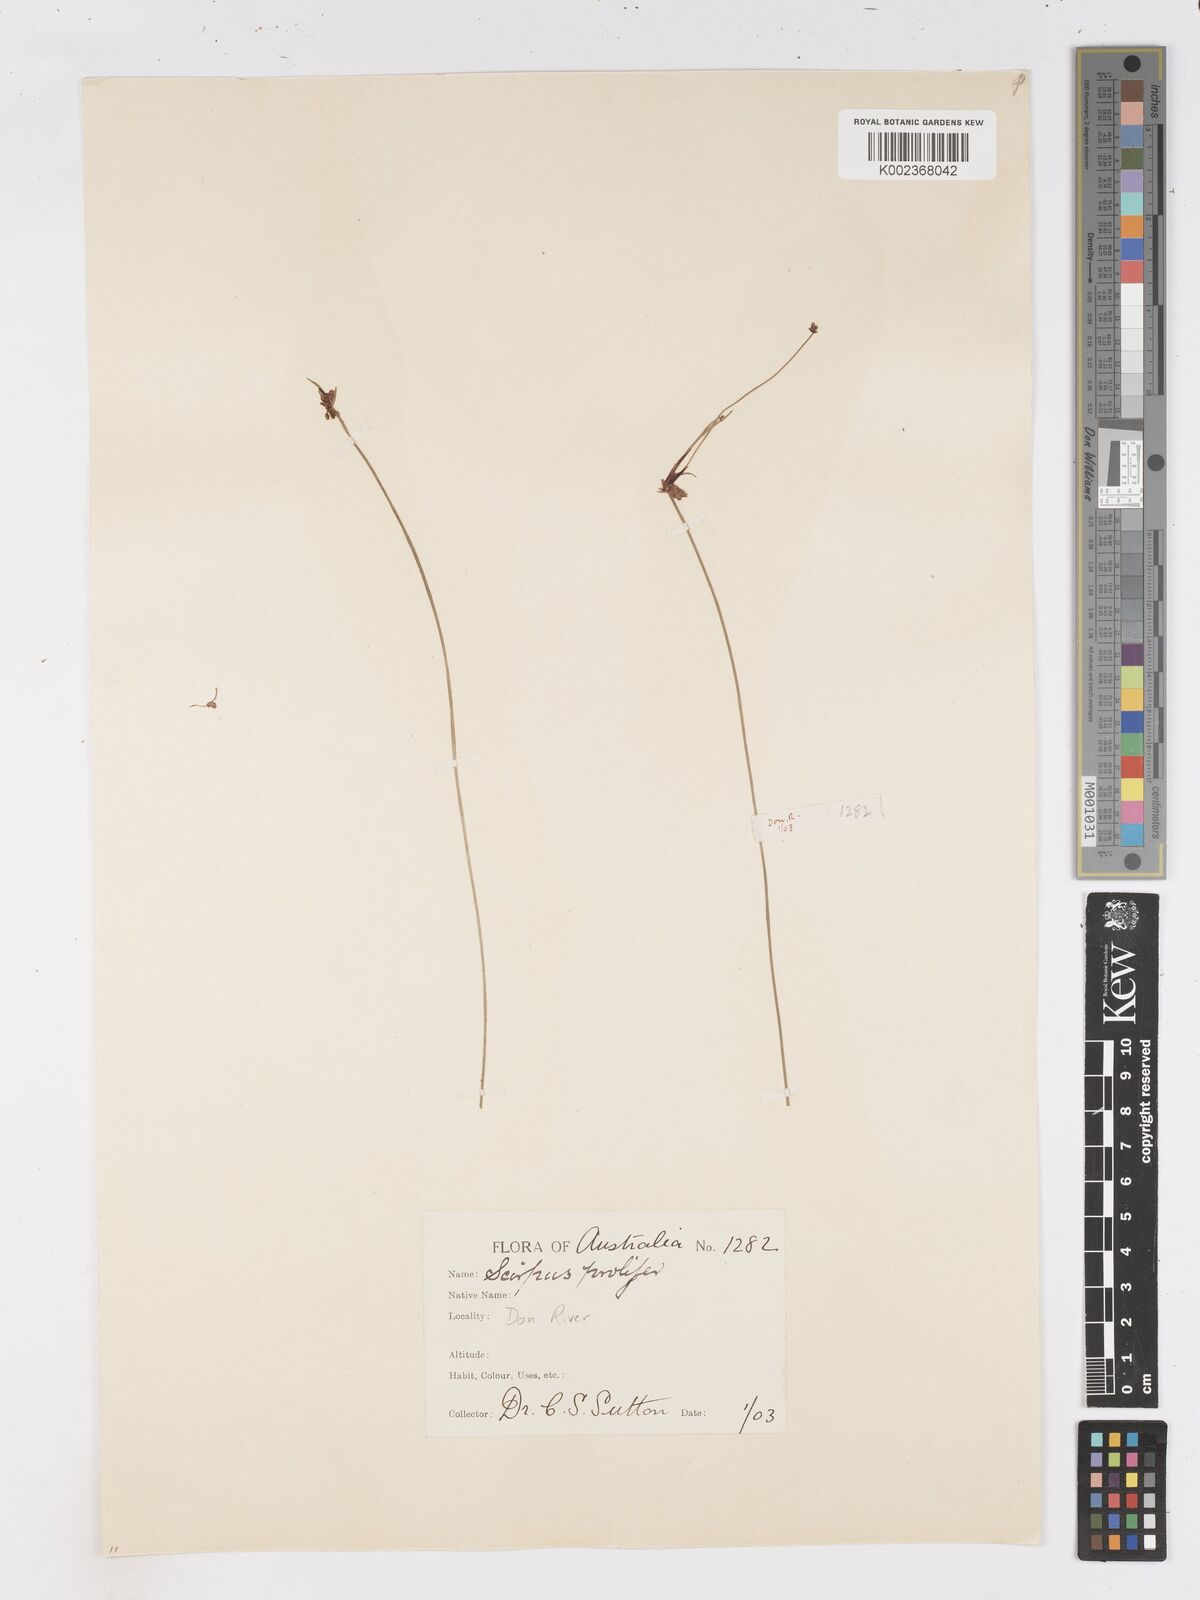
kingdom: Plantae
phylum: Tracheophyta
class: Liliopsida
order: Poales
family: Cyperaceae
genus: Isolepis
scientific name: Isolepis inundata
